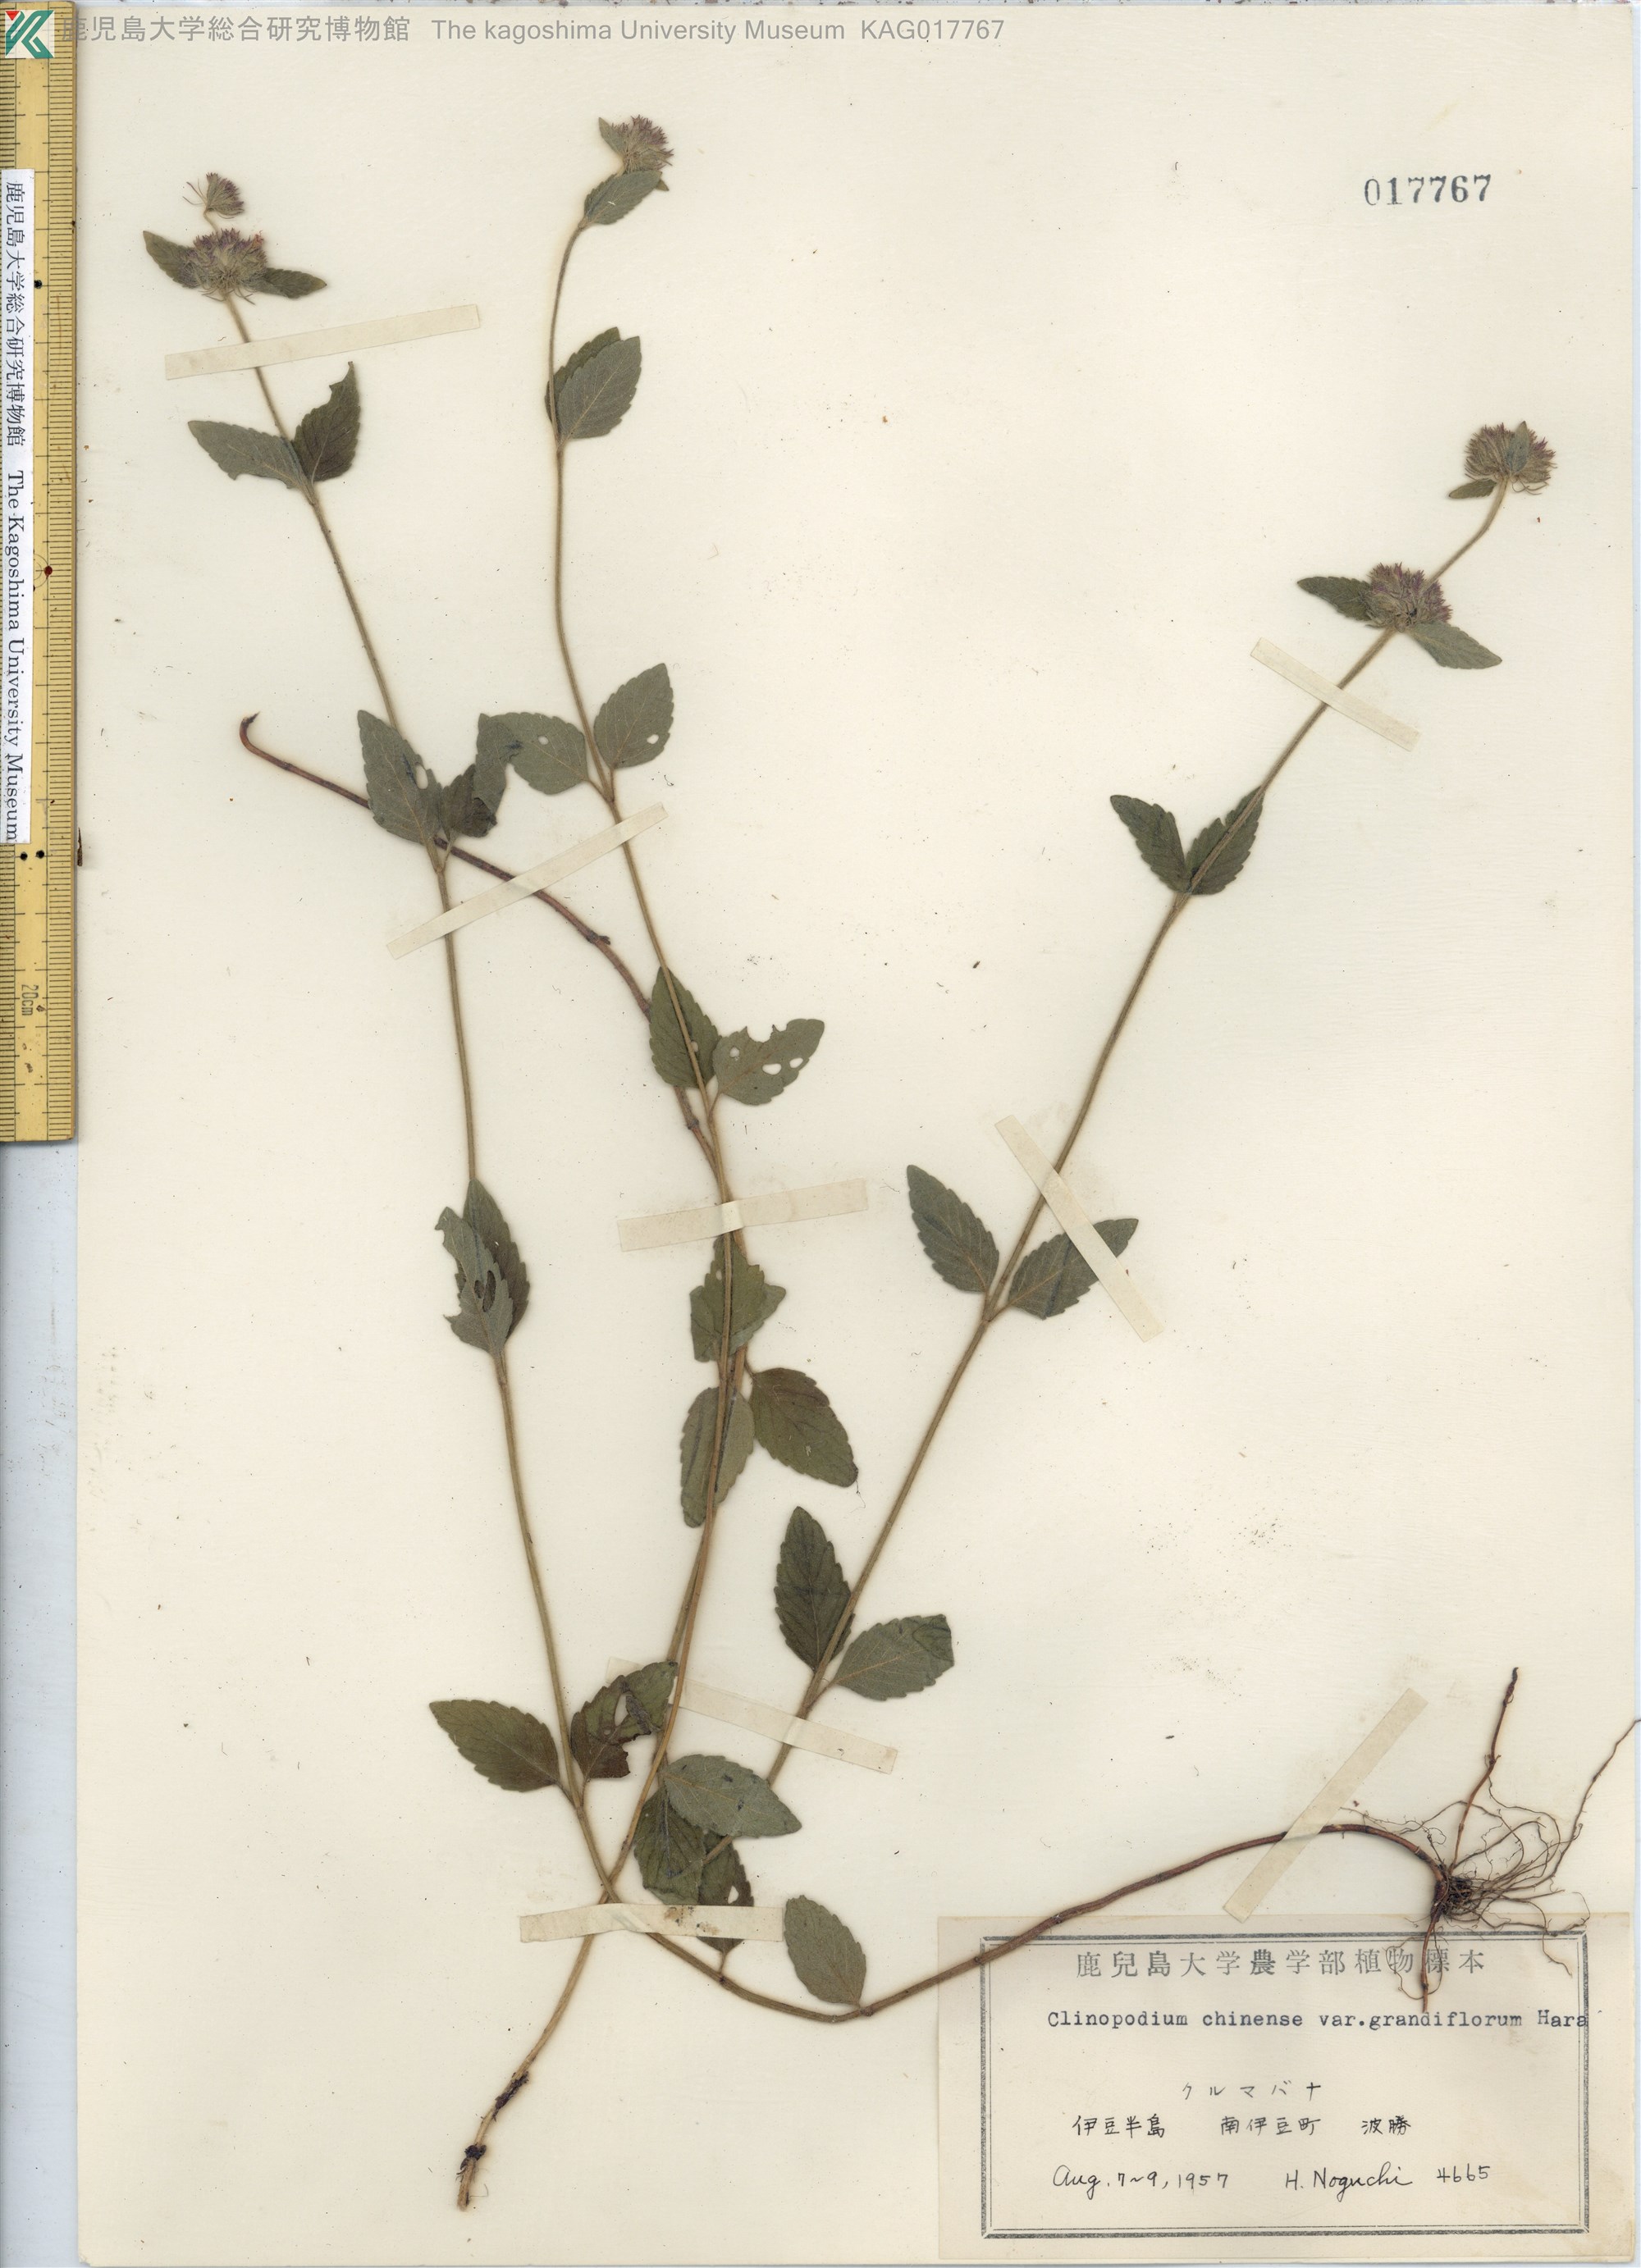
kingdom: Plantae
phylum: Tracheophyta
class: Magnoliopsida
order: Lamiales
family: Lamiaceae
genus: Clinopodium
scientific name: Clinopodium chinense
